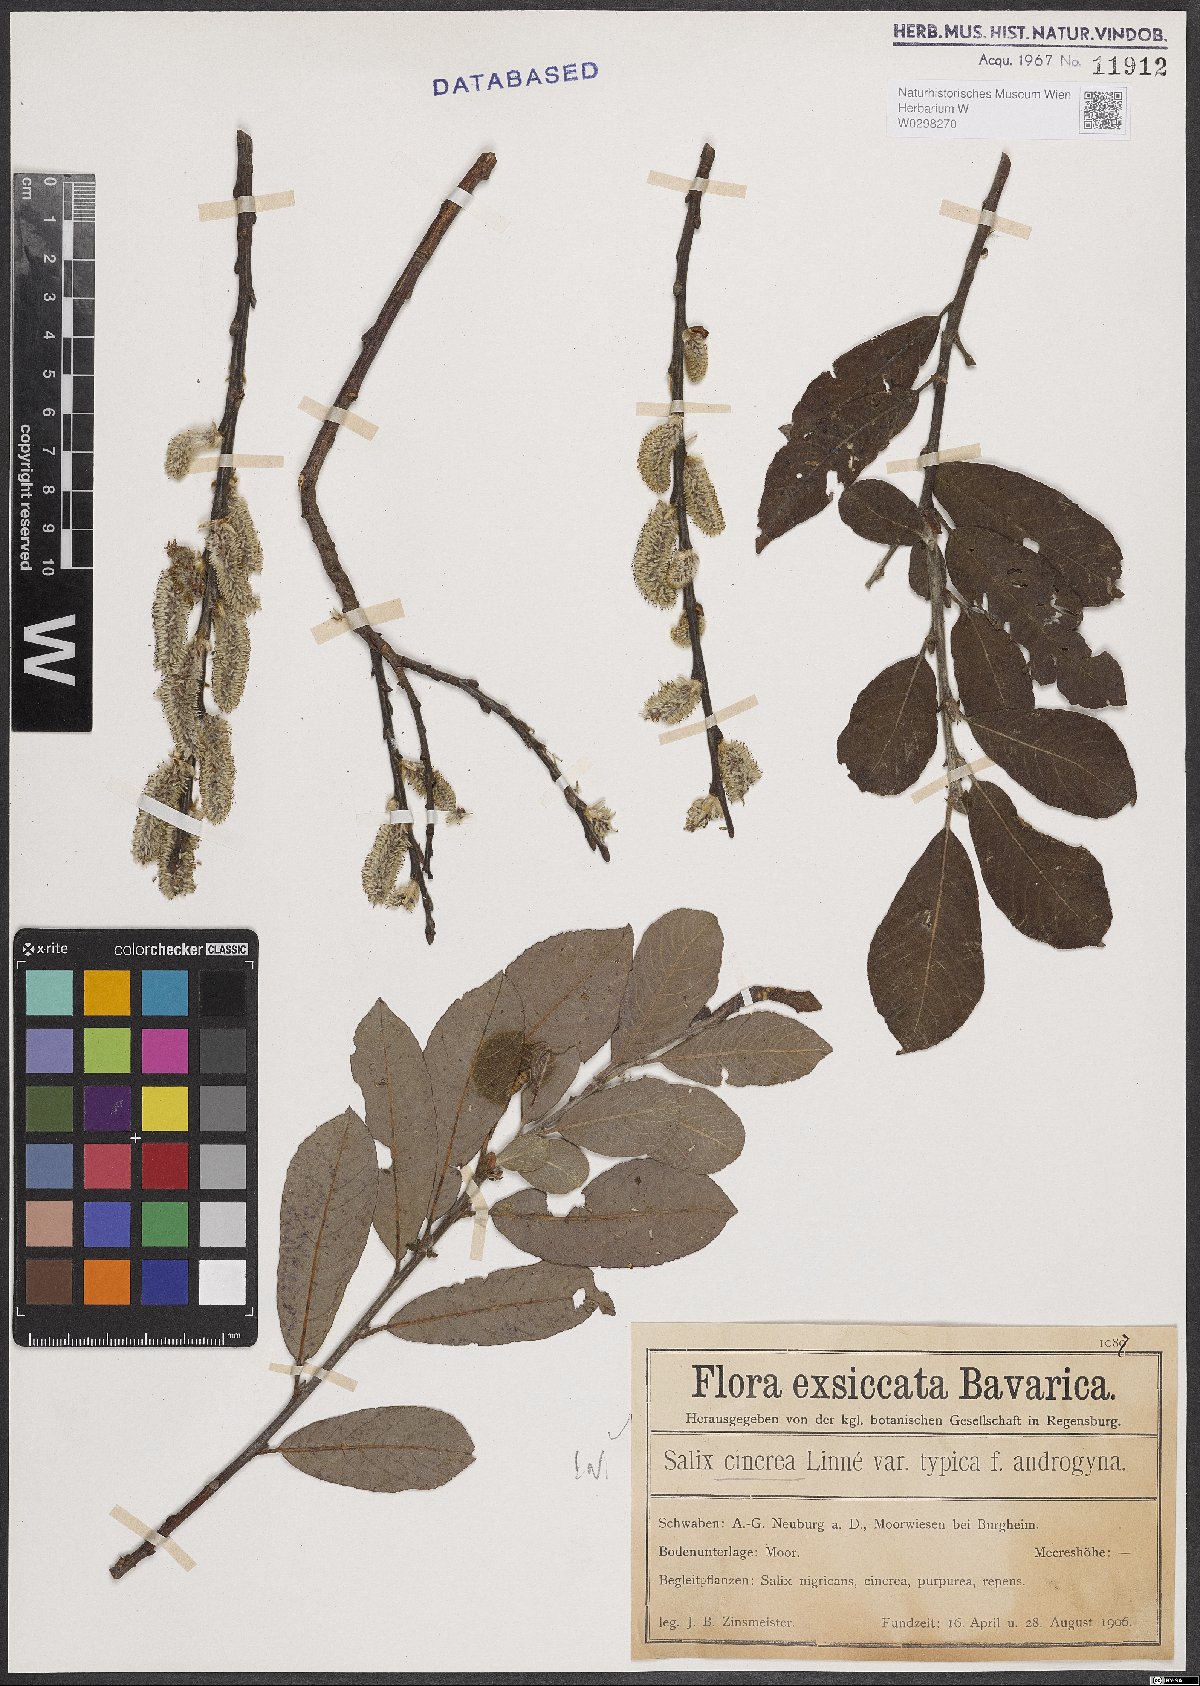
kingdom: Plantae
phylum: Tracheophyta
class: Magnoliopsida
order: Malpighiales
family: Salicaceae
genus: Salix
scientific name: Salix cinerea
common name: Common sallow
